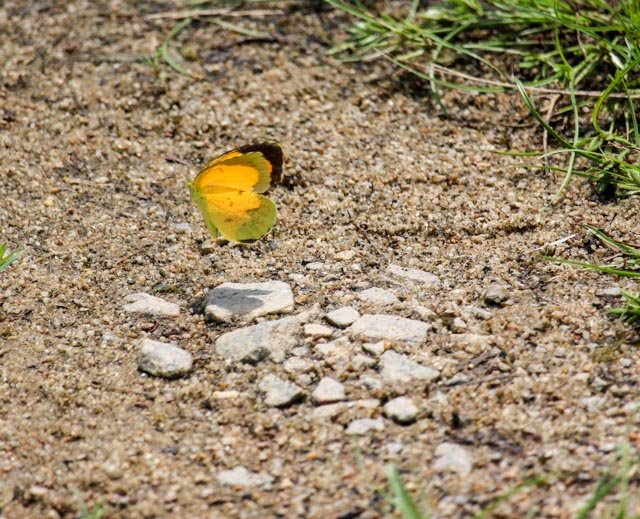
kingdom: Animalia
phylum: Arthropoda
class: Insecta
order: Lepidoptera
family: Pieridae
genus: Abaeis
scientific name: Abaeis nicippe
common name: Sleepy Orange
